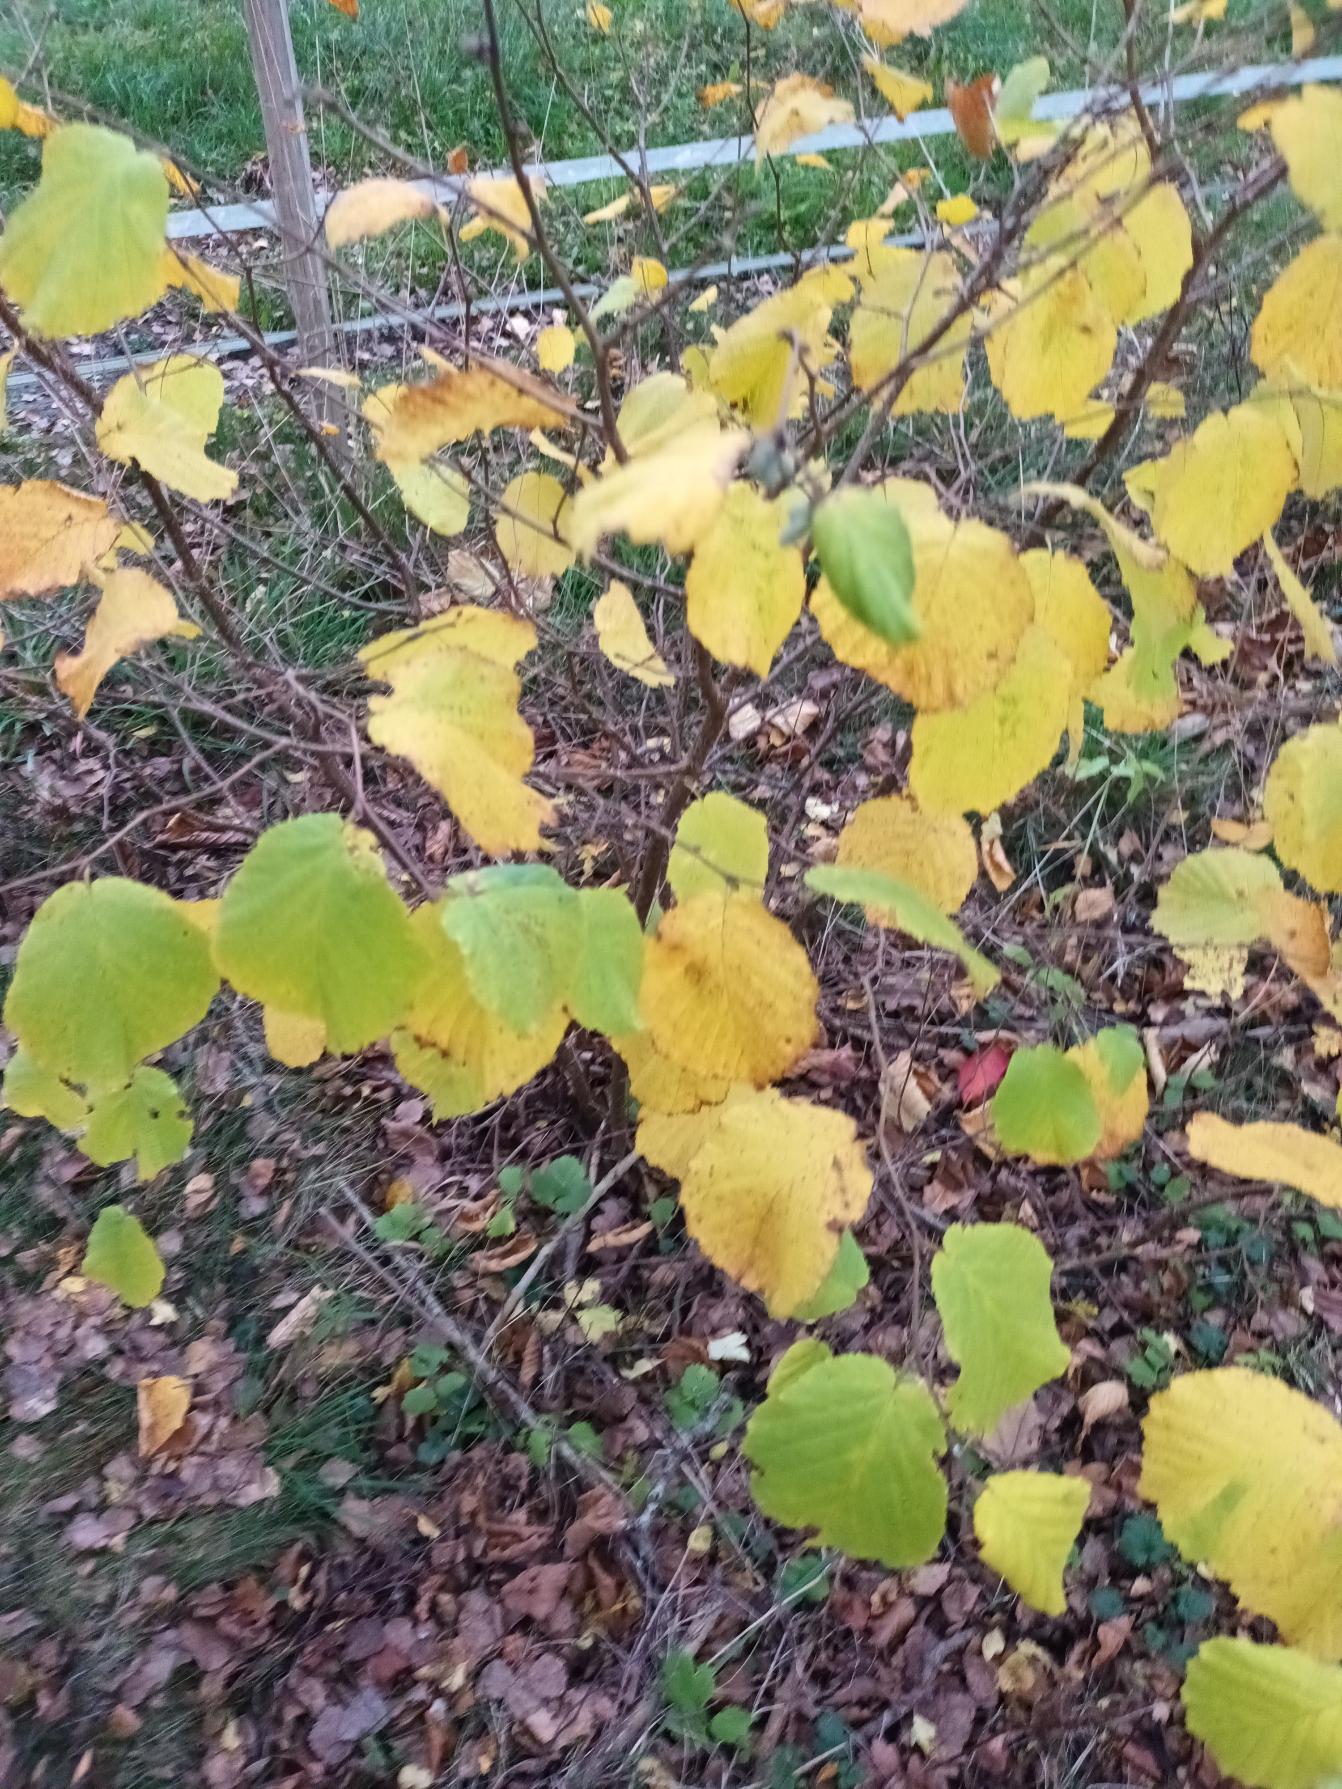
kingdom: Plantae
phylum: Tracheophyta
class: Magnoliopsida
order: Fagales
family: Betulaceae
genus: Corylus
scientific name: Corylus avellana
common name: Hassel
